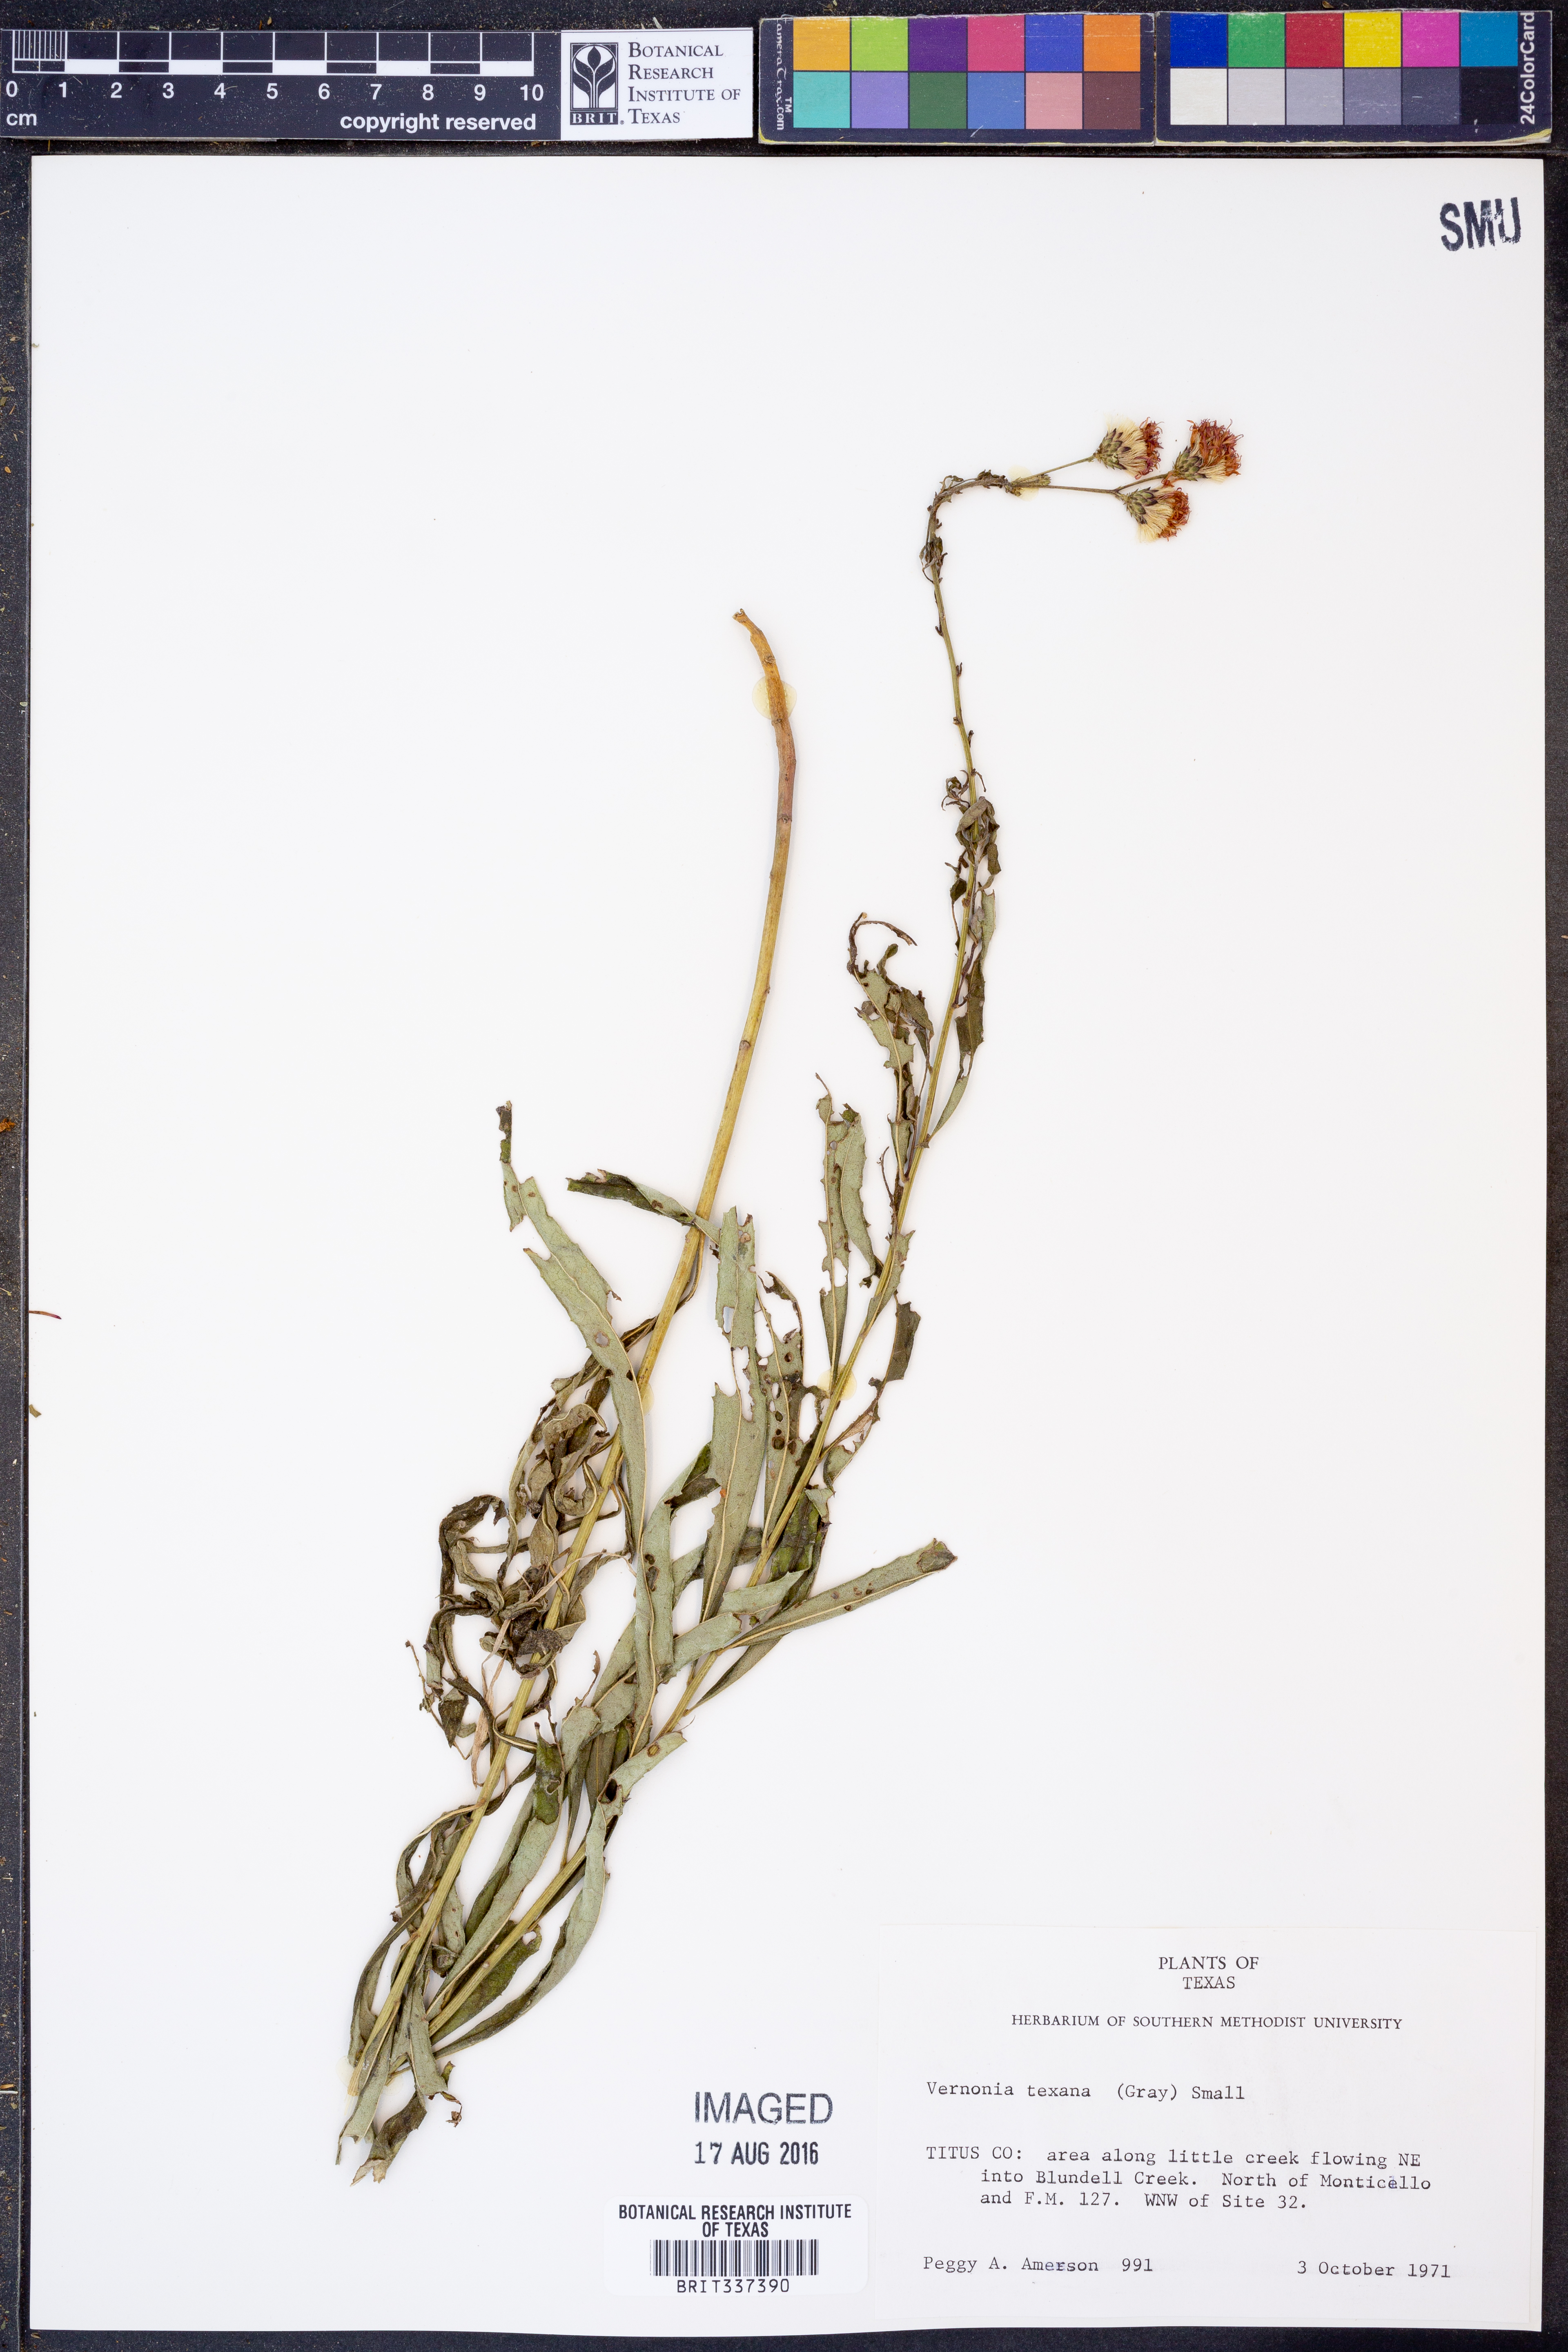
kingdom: Plantae
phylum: Tracheophyta
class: Magnoliopsida
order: Asterales
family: Asteraceae
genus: Vernonia
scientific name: Vernonia texana
